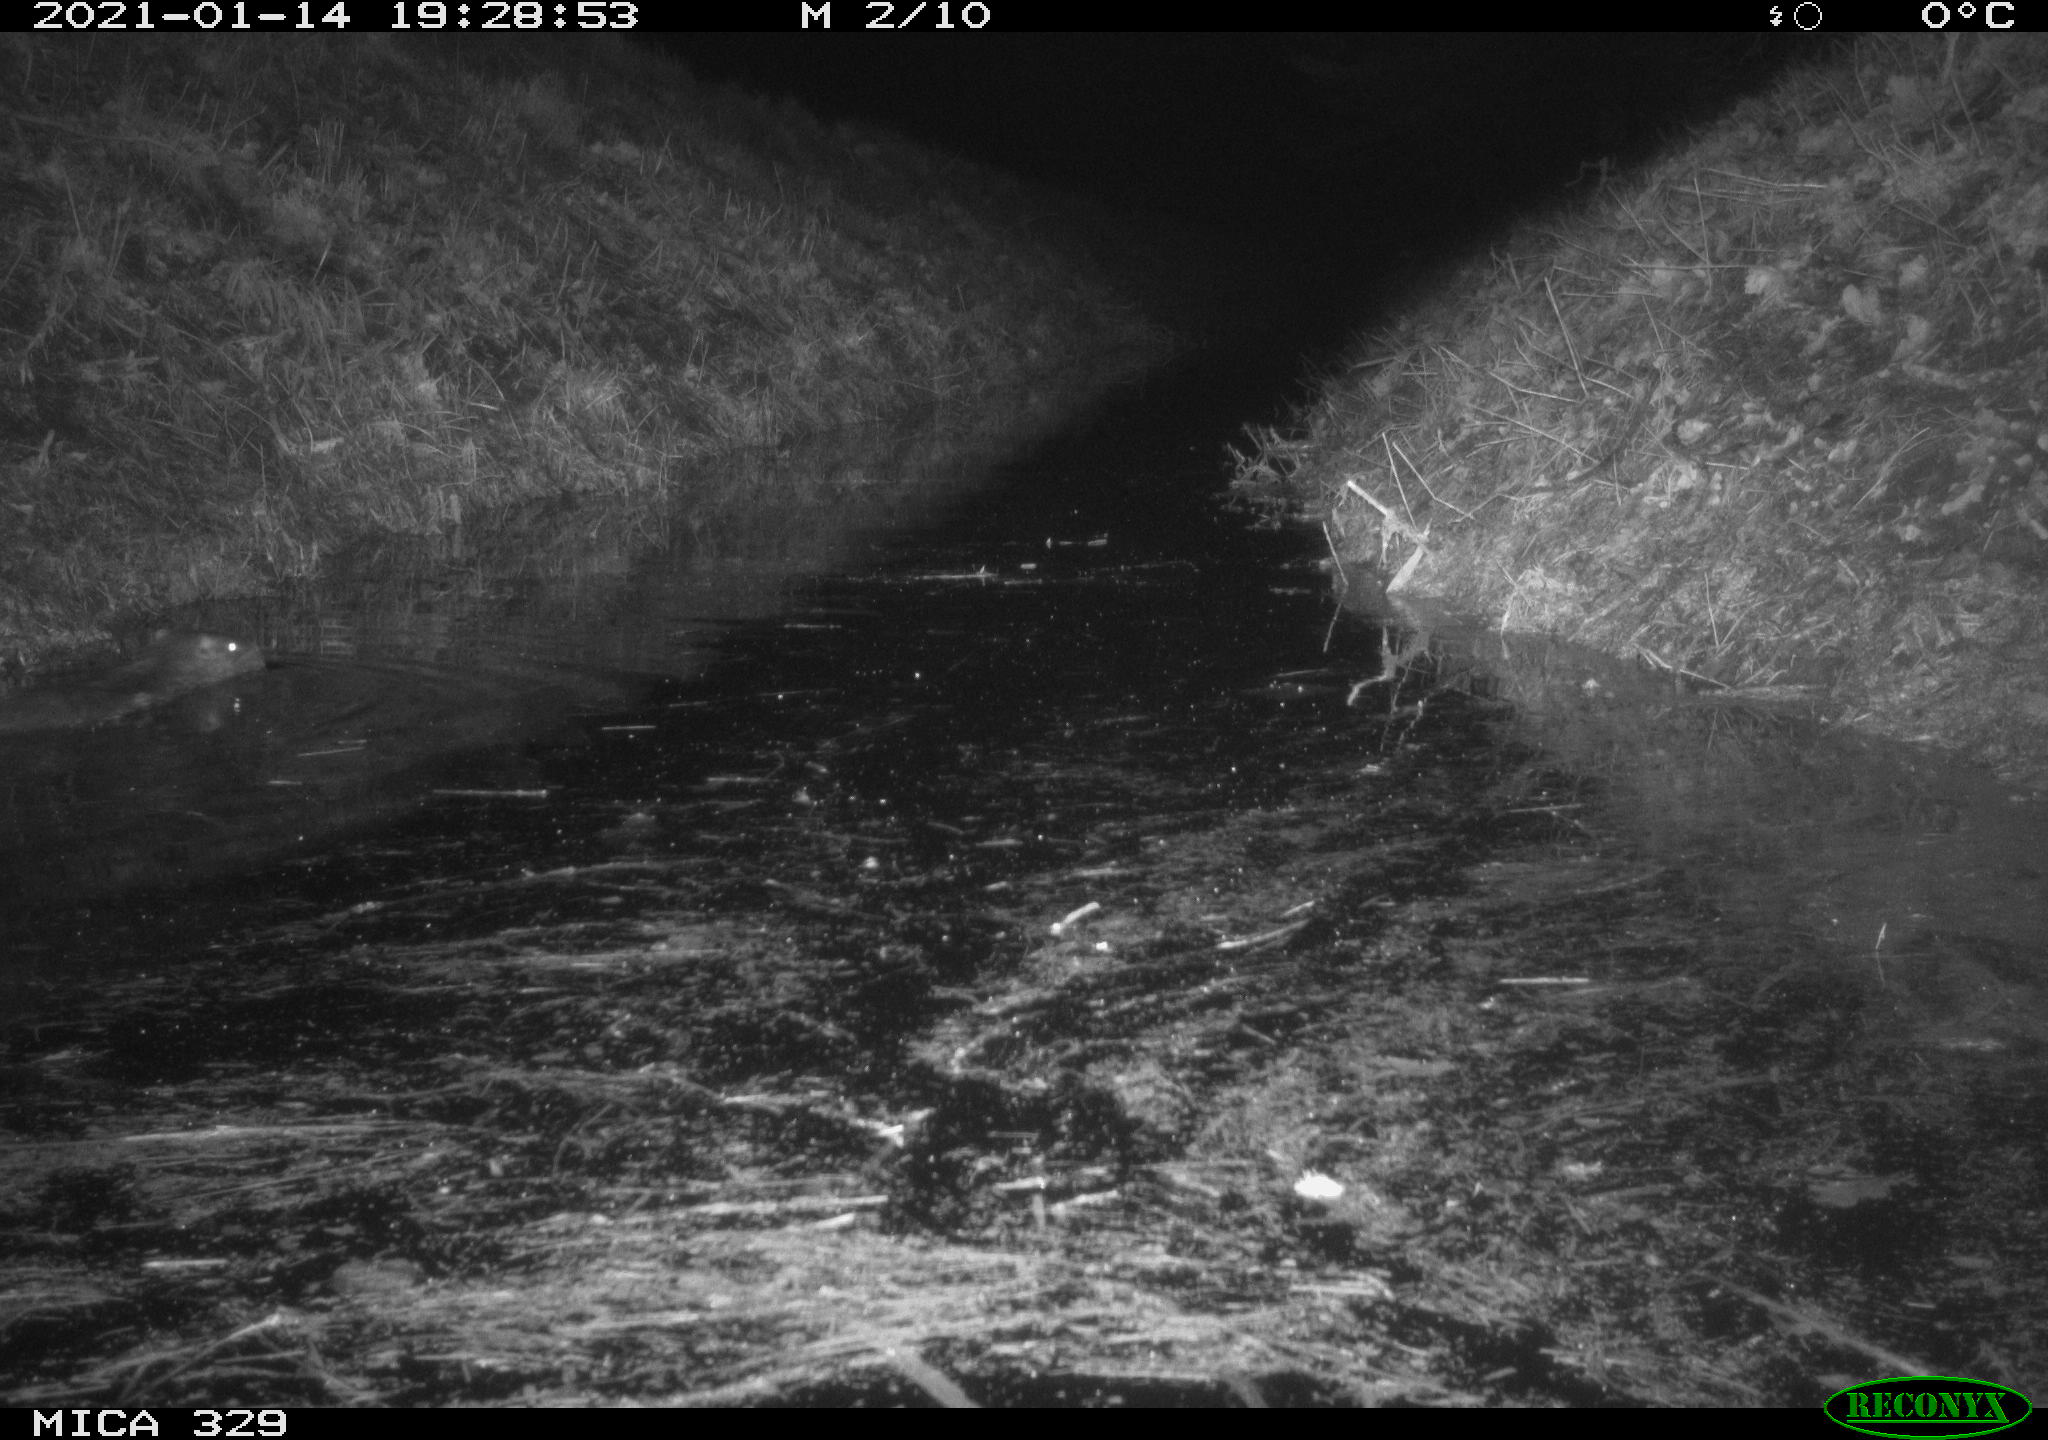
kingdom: Animalia
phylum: Chordata
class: Mammalia
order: Rodentia
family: Myocastoridae
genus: Myocastor
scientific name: Myocastor coypus
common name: Coypu
